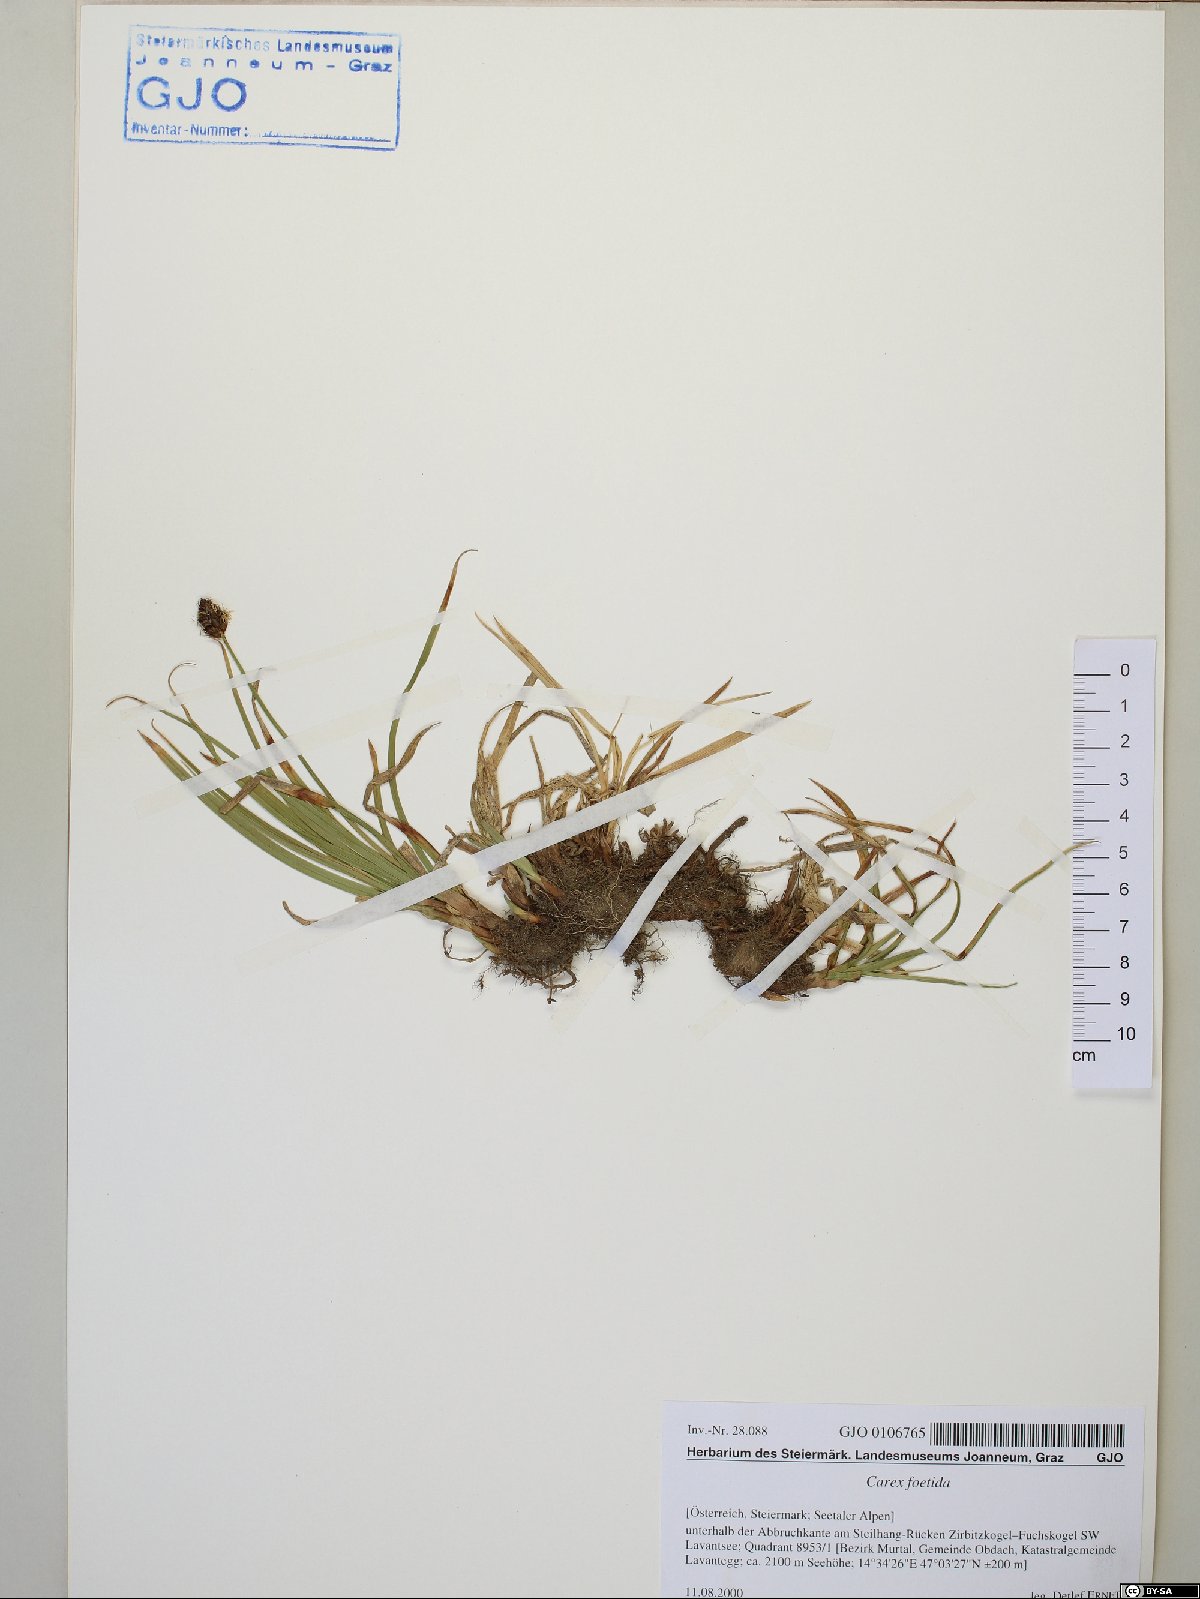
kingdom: Plantae
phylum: Tracheophyta
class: Liliopsida
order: Poales
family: Cyperaceae
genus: Carex
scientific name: Carex foetida
